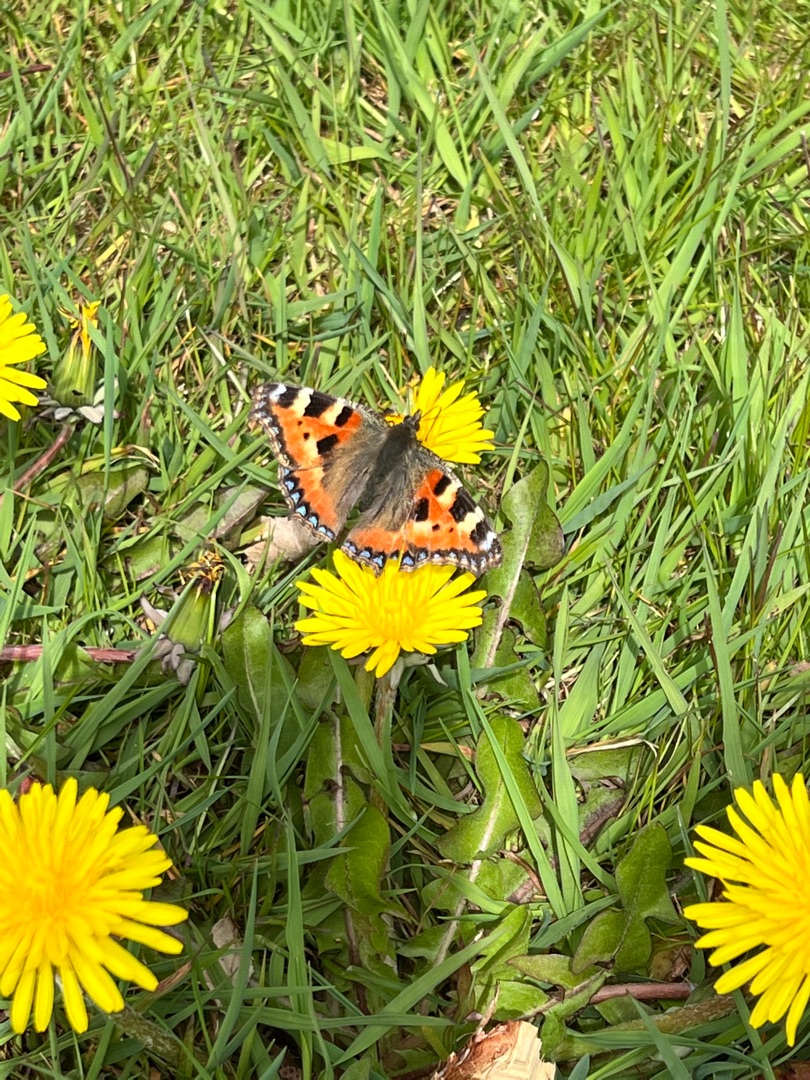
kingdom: Animalia
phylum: Arthropoda
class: Insecta
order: Lepidoptera
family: Nymphalidae
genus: Aglais
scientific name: Aglais urticae
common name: Nældens takvinge
